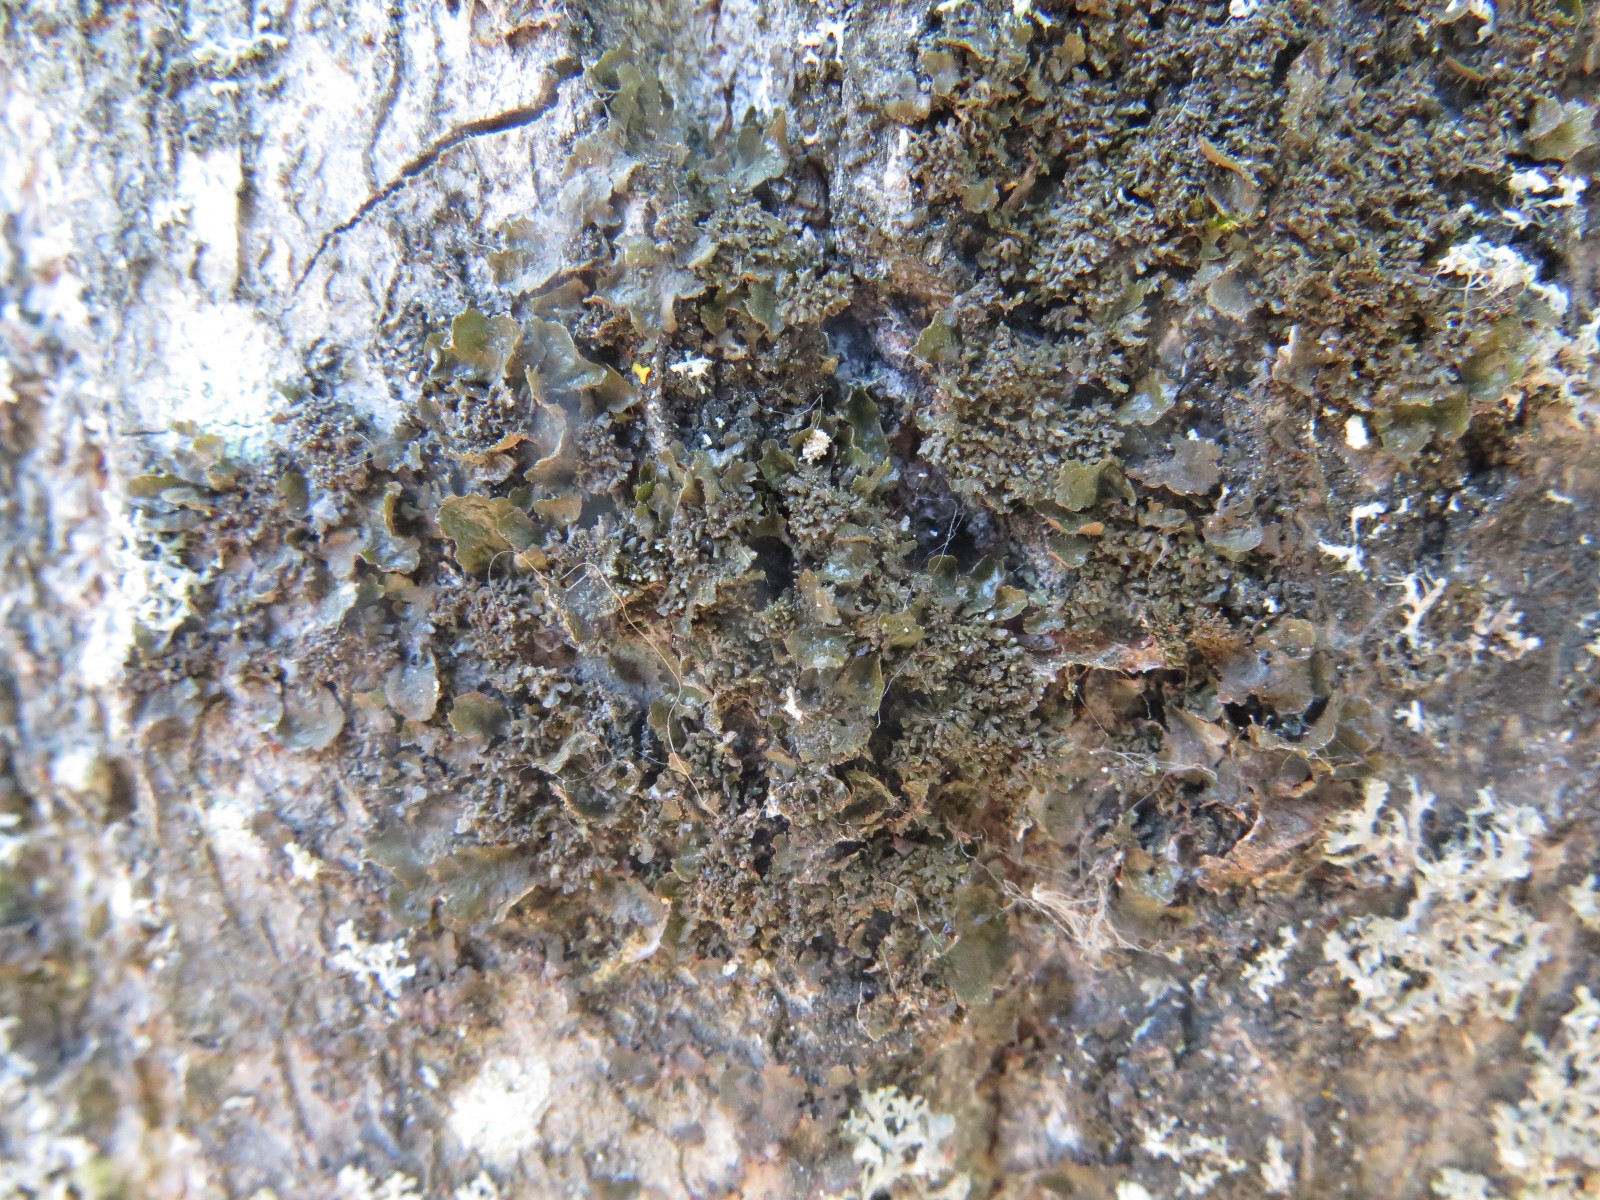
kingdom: Fungi
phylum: Ascomycota
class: Lecanoromycetes
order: Lecanorales
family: Parmeliaceae
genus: Melanohalea
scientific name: Melanohalea exasperatula
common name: kølle-skållav
